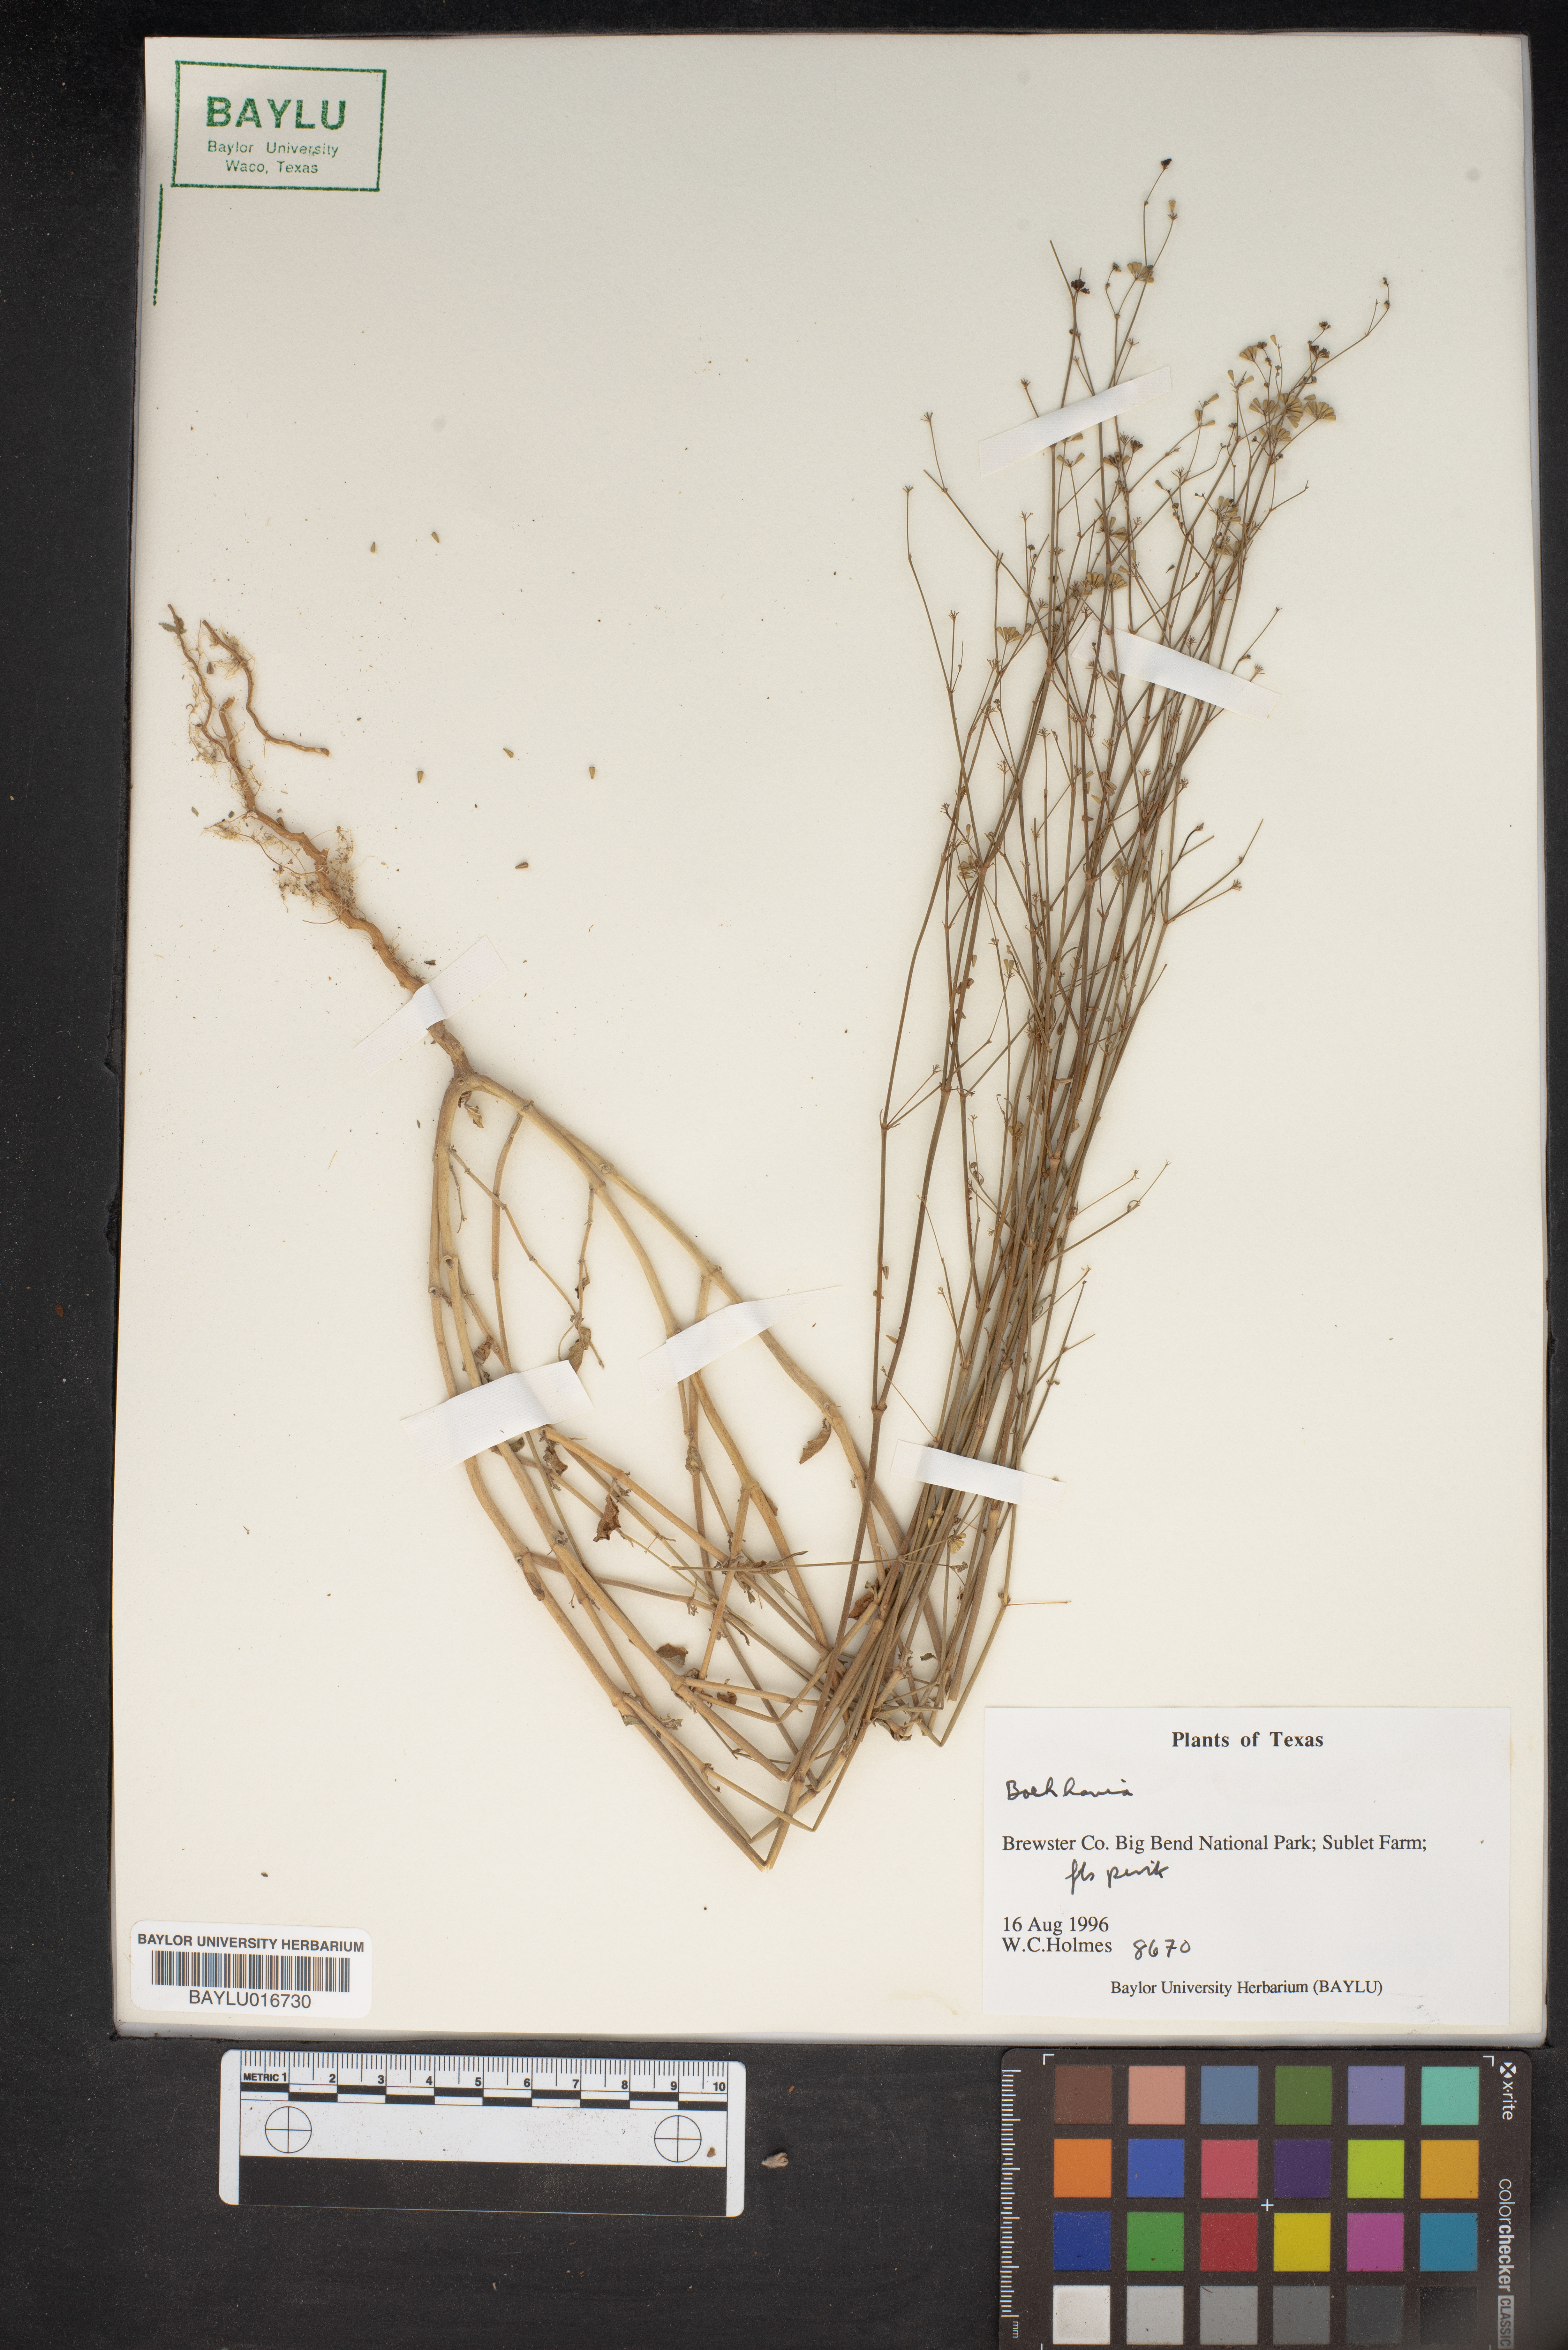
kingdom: Plantae
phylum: Tracheophyta
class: Magnoliopsida
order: Caryophyllales
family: Nyctaginaceae
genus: Boerhavia
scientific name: Boerhavia
